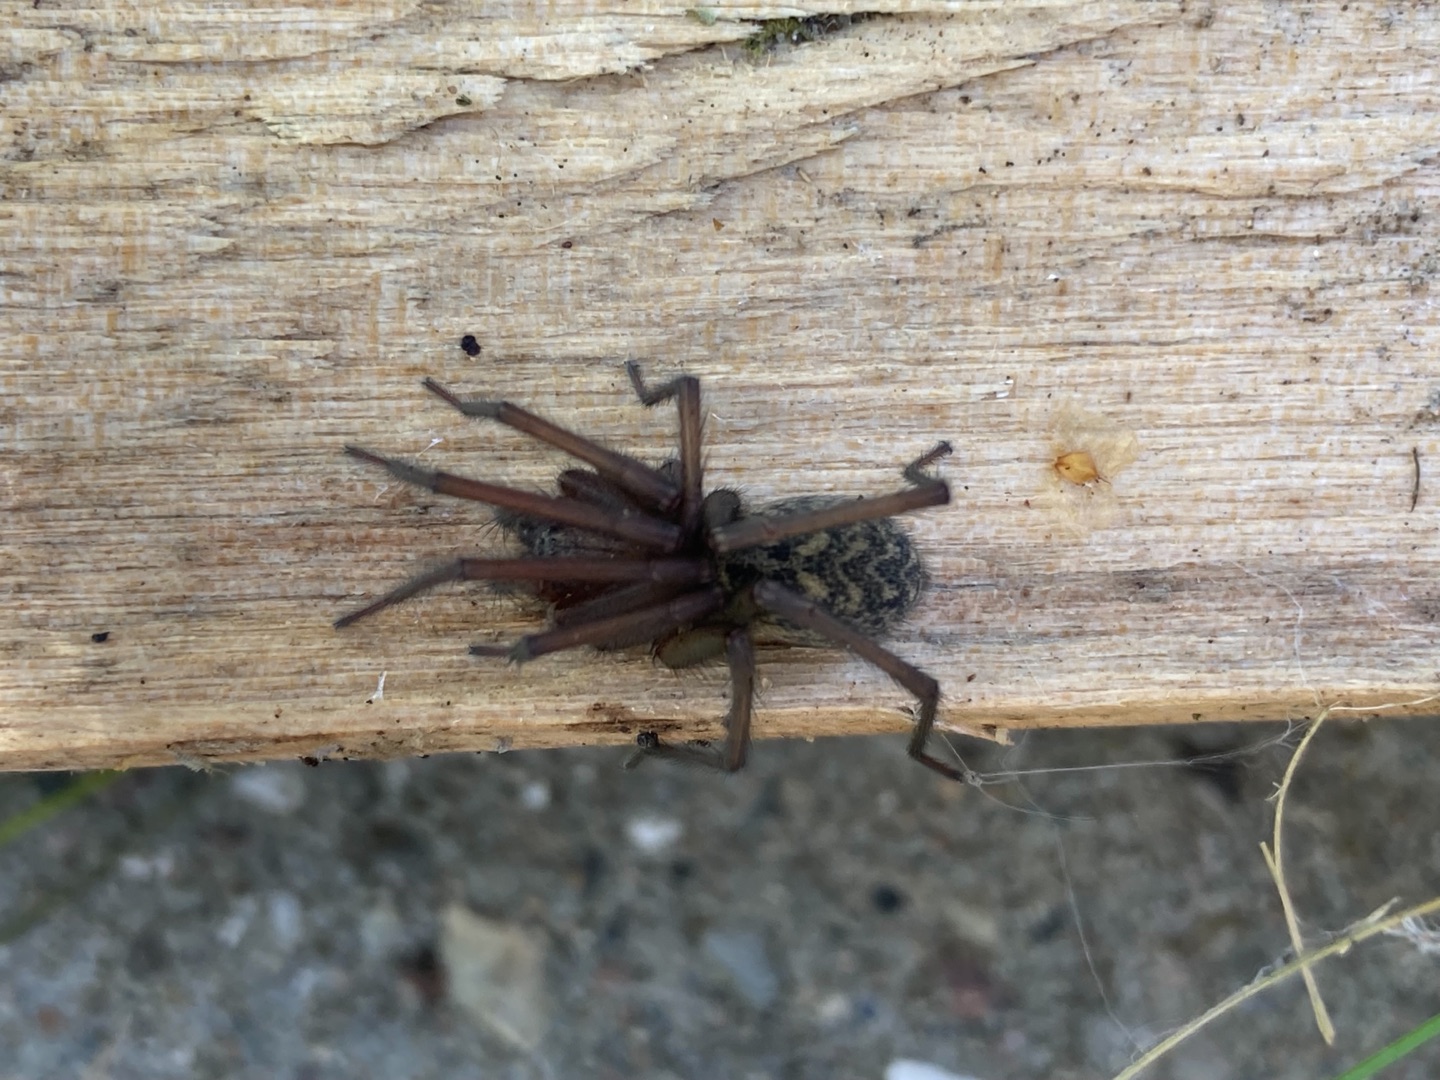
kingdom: Animalia
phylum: Arthropoda
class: Arachnida
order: Araneae
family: Agelenidae
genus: Eratigena
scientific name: Eratigena atrica
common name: Stor husedderkop
